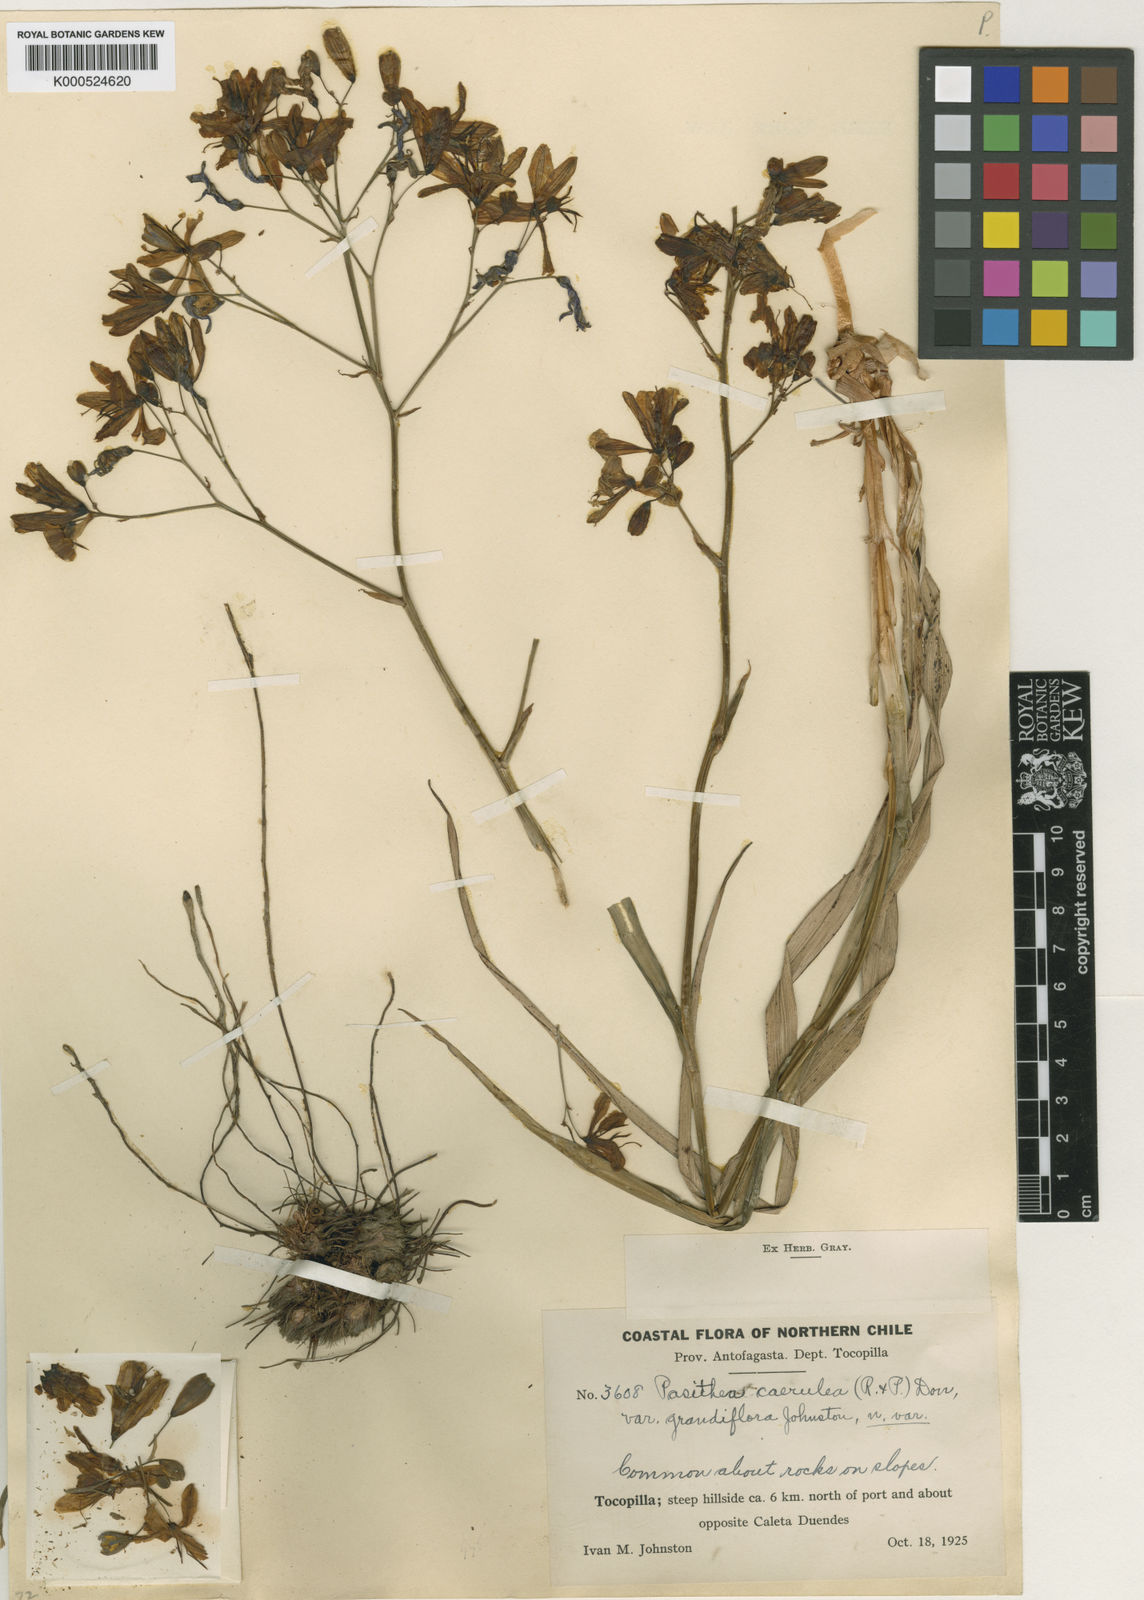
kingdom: Plantae
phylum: Tracheophyta
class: Liliopsida
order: Asparagales
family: Asphodelaceae
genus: Pasithea
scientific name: Pasithea
